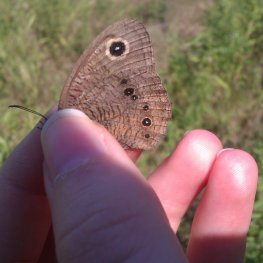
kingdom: Animalia
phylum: Arthropoda
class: Insecta
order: Lepidoptera
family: Nymphalidae
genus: Cercyonis
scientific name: Cercyonis pegala
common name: Common Wood-Nymph
